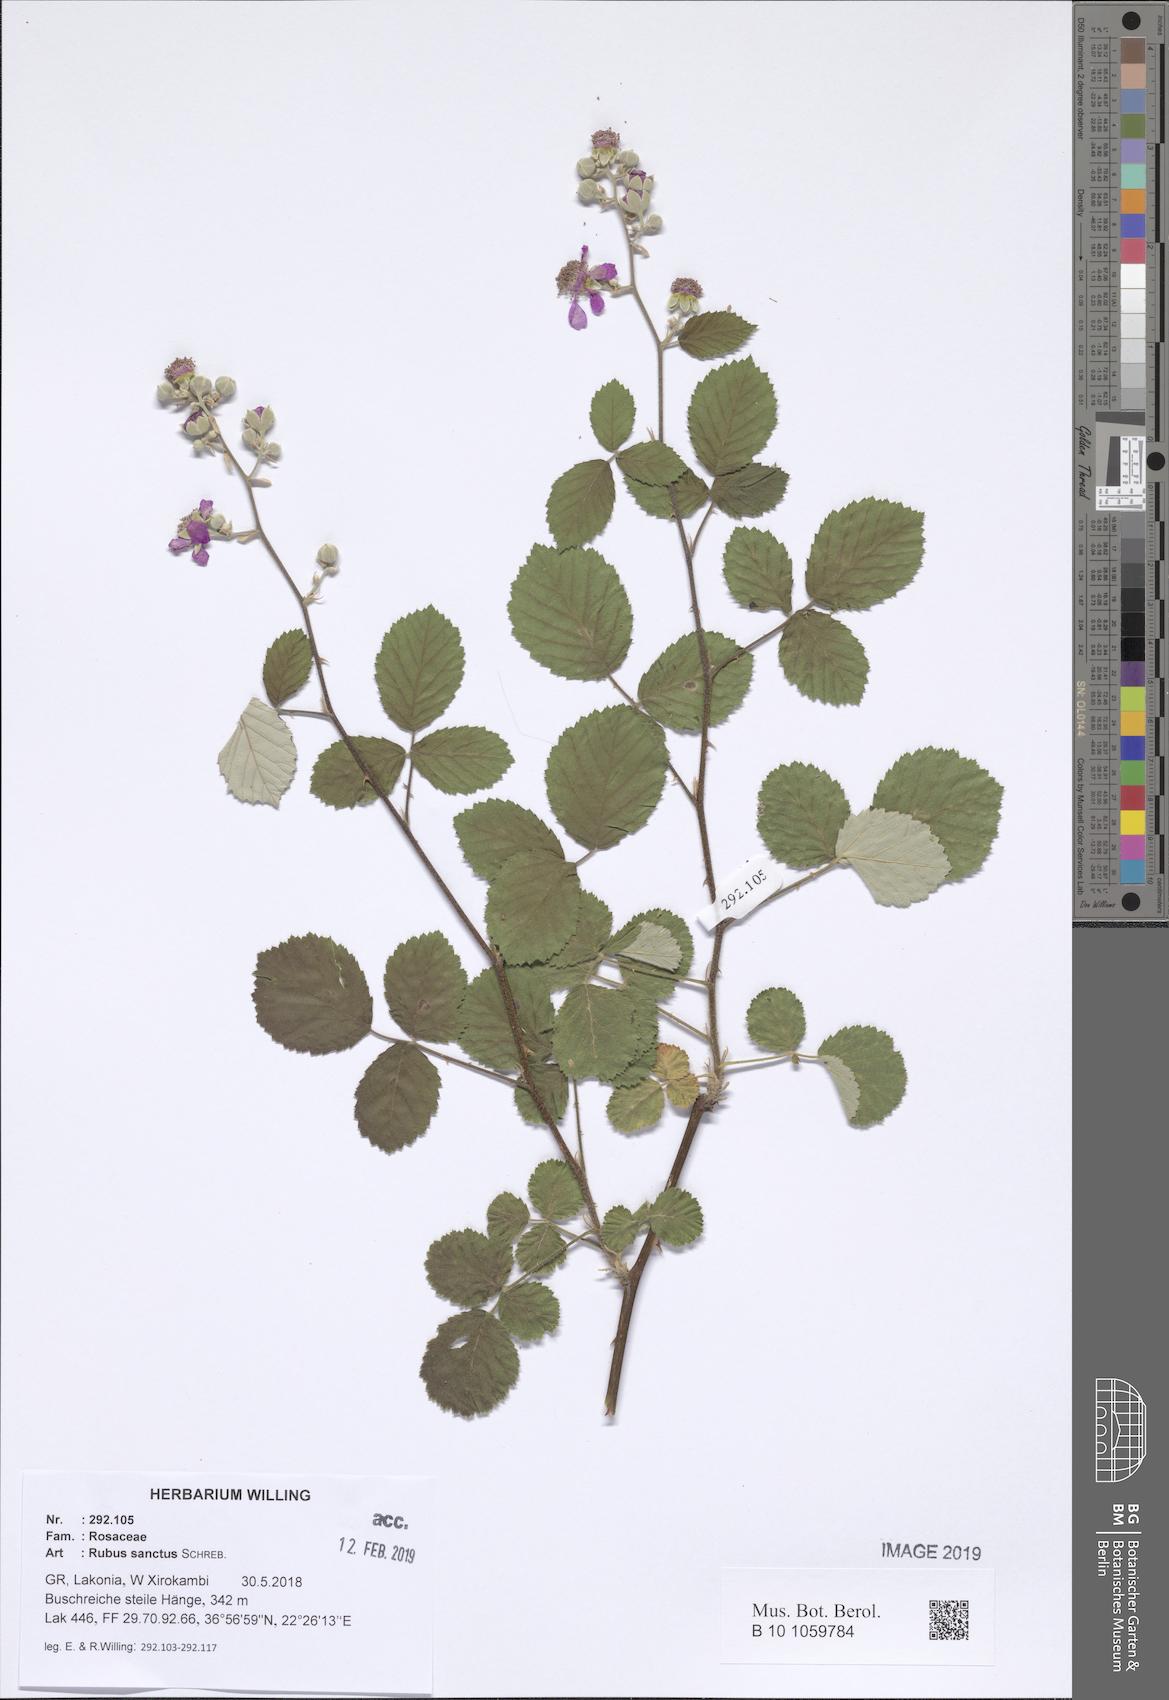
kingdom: Plantae
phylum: Tracheophyta
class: Magnoliopsida
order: Rosales
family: Rosaceae
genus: Rubus
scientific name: Rubus sanctus
